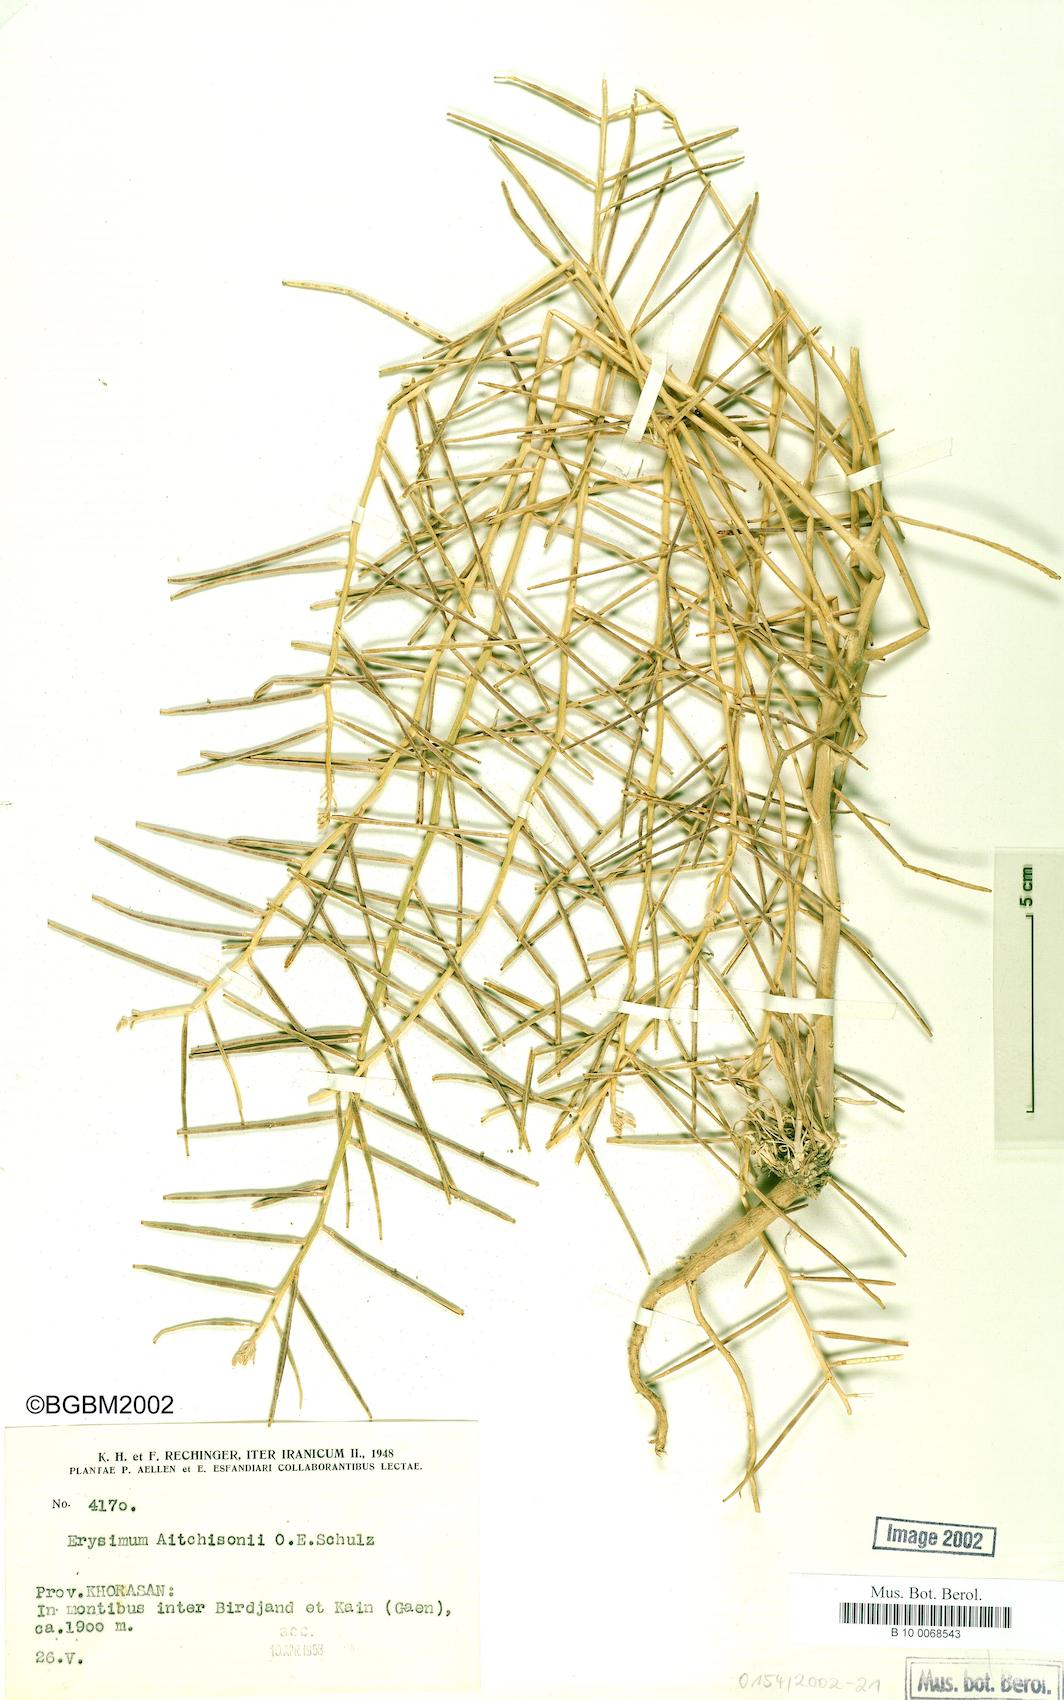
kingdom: Plantae
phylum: Tracheophyta
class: Magnoliopsida
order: Brassicales
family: Brassicaceae
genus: Erysimum
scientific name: Erysimum aitchisonii
